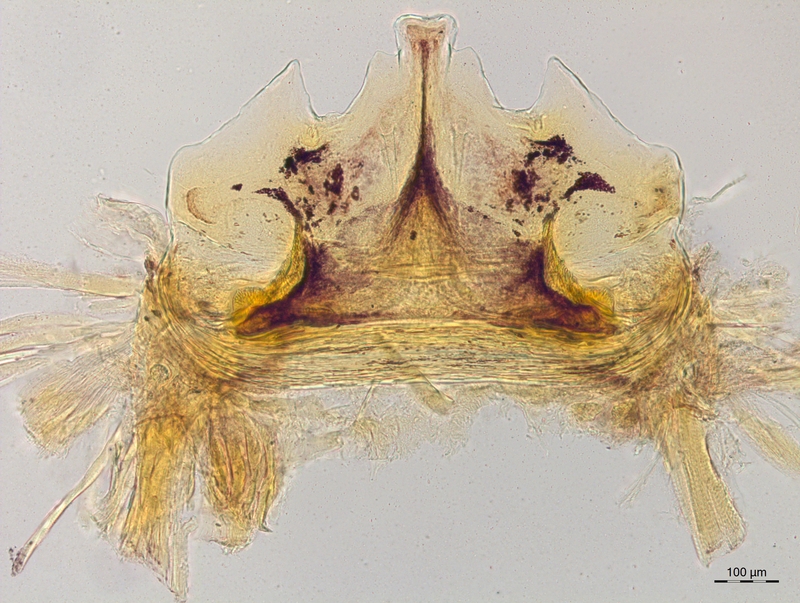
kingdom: Animalia
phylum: Arthropoda
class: Diplopoda
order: Chordeumatida
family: Craspedosomatidae
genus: Craspedosoma
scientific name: Craspedosoma taurinorum
